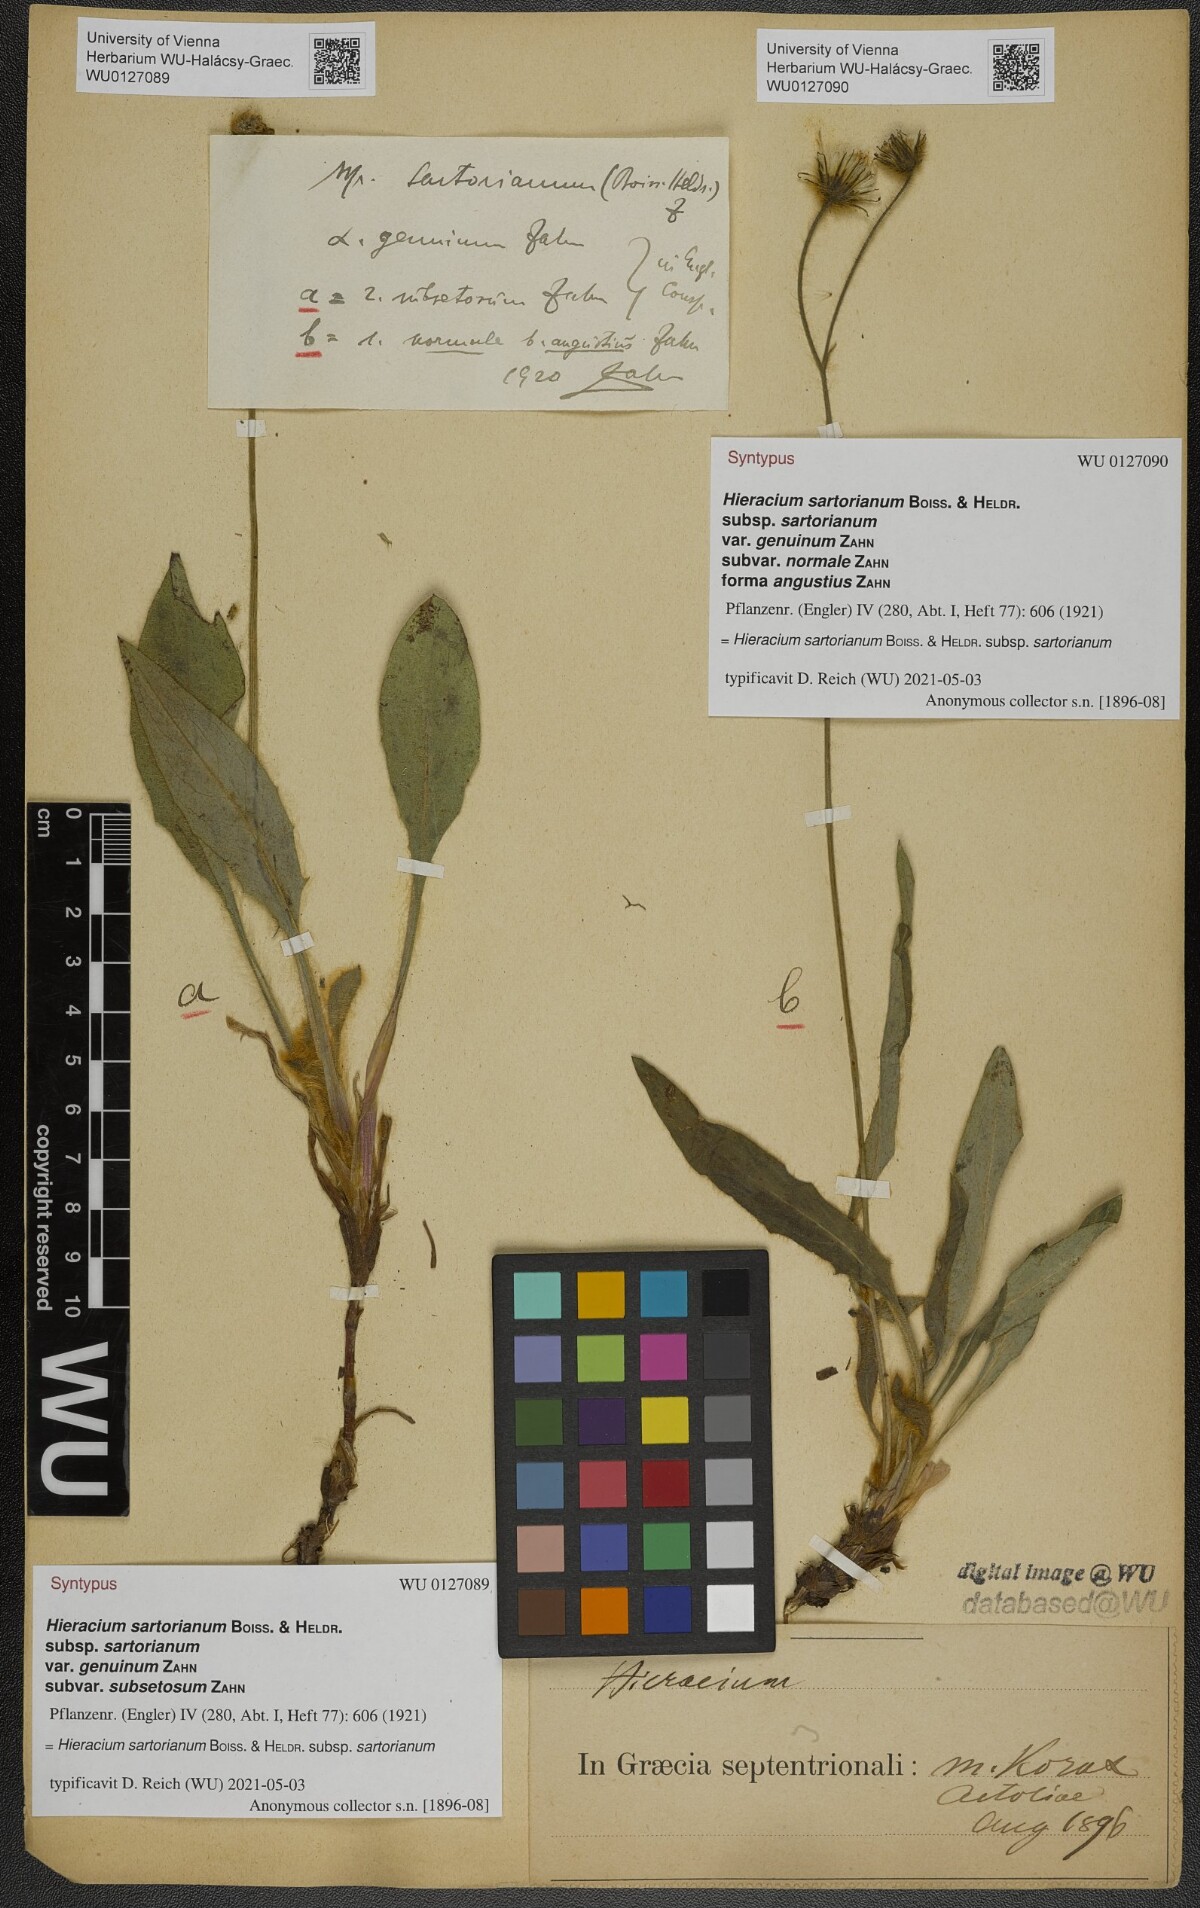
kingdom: Plantae
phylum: Tracheophyta
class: Magnoliopsida
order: Asterales
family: Asteraceae
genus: Hieracium
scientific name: Hieracium sartorianum
